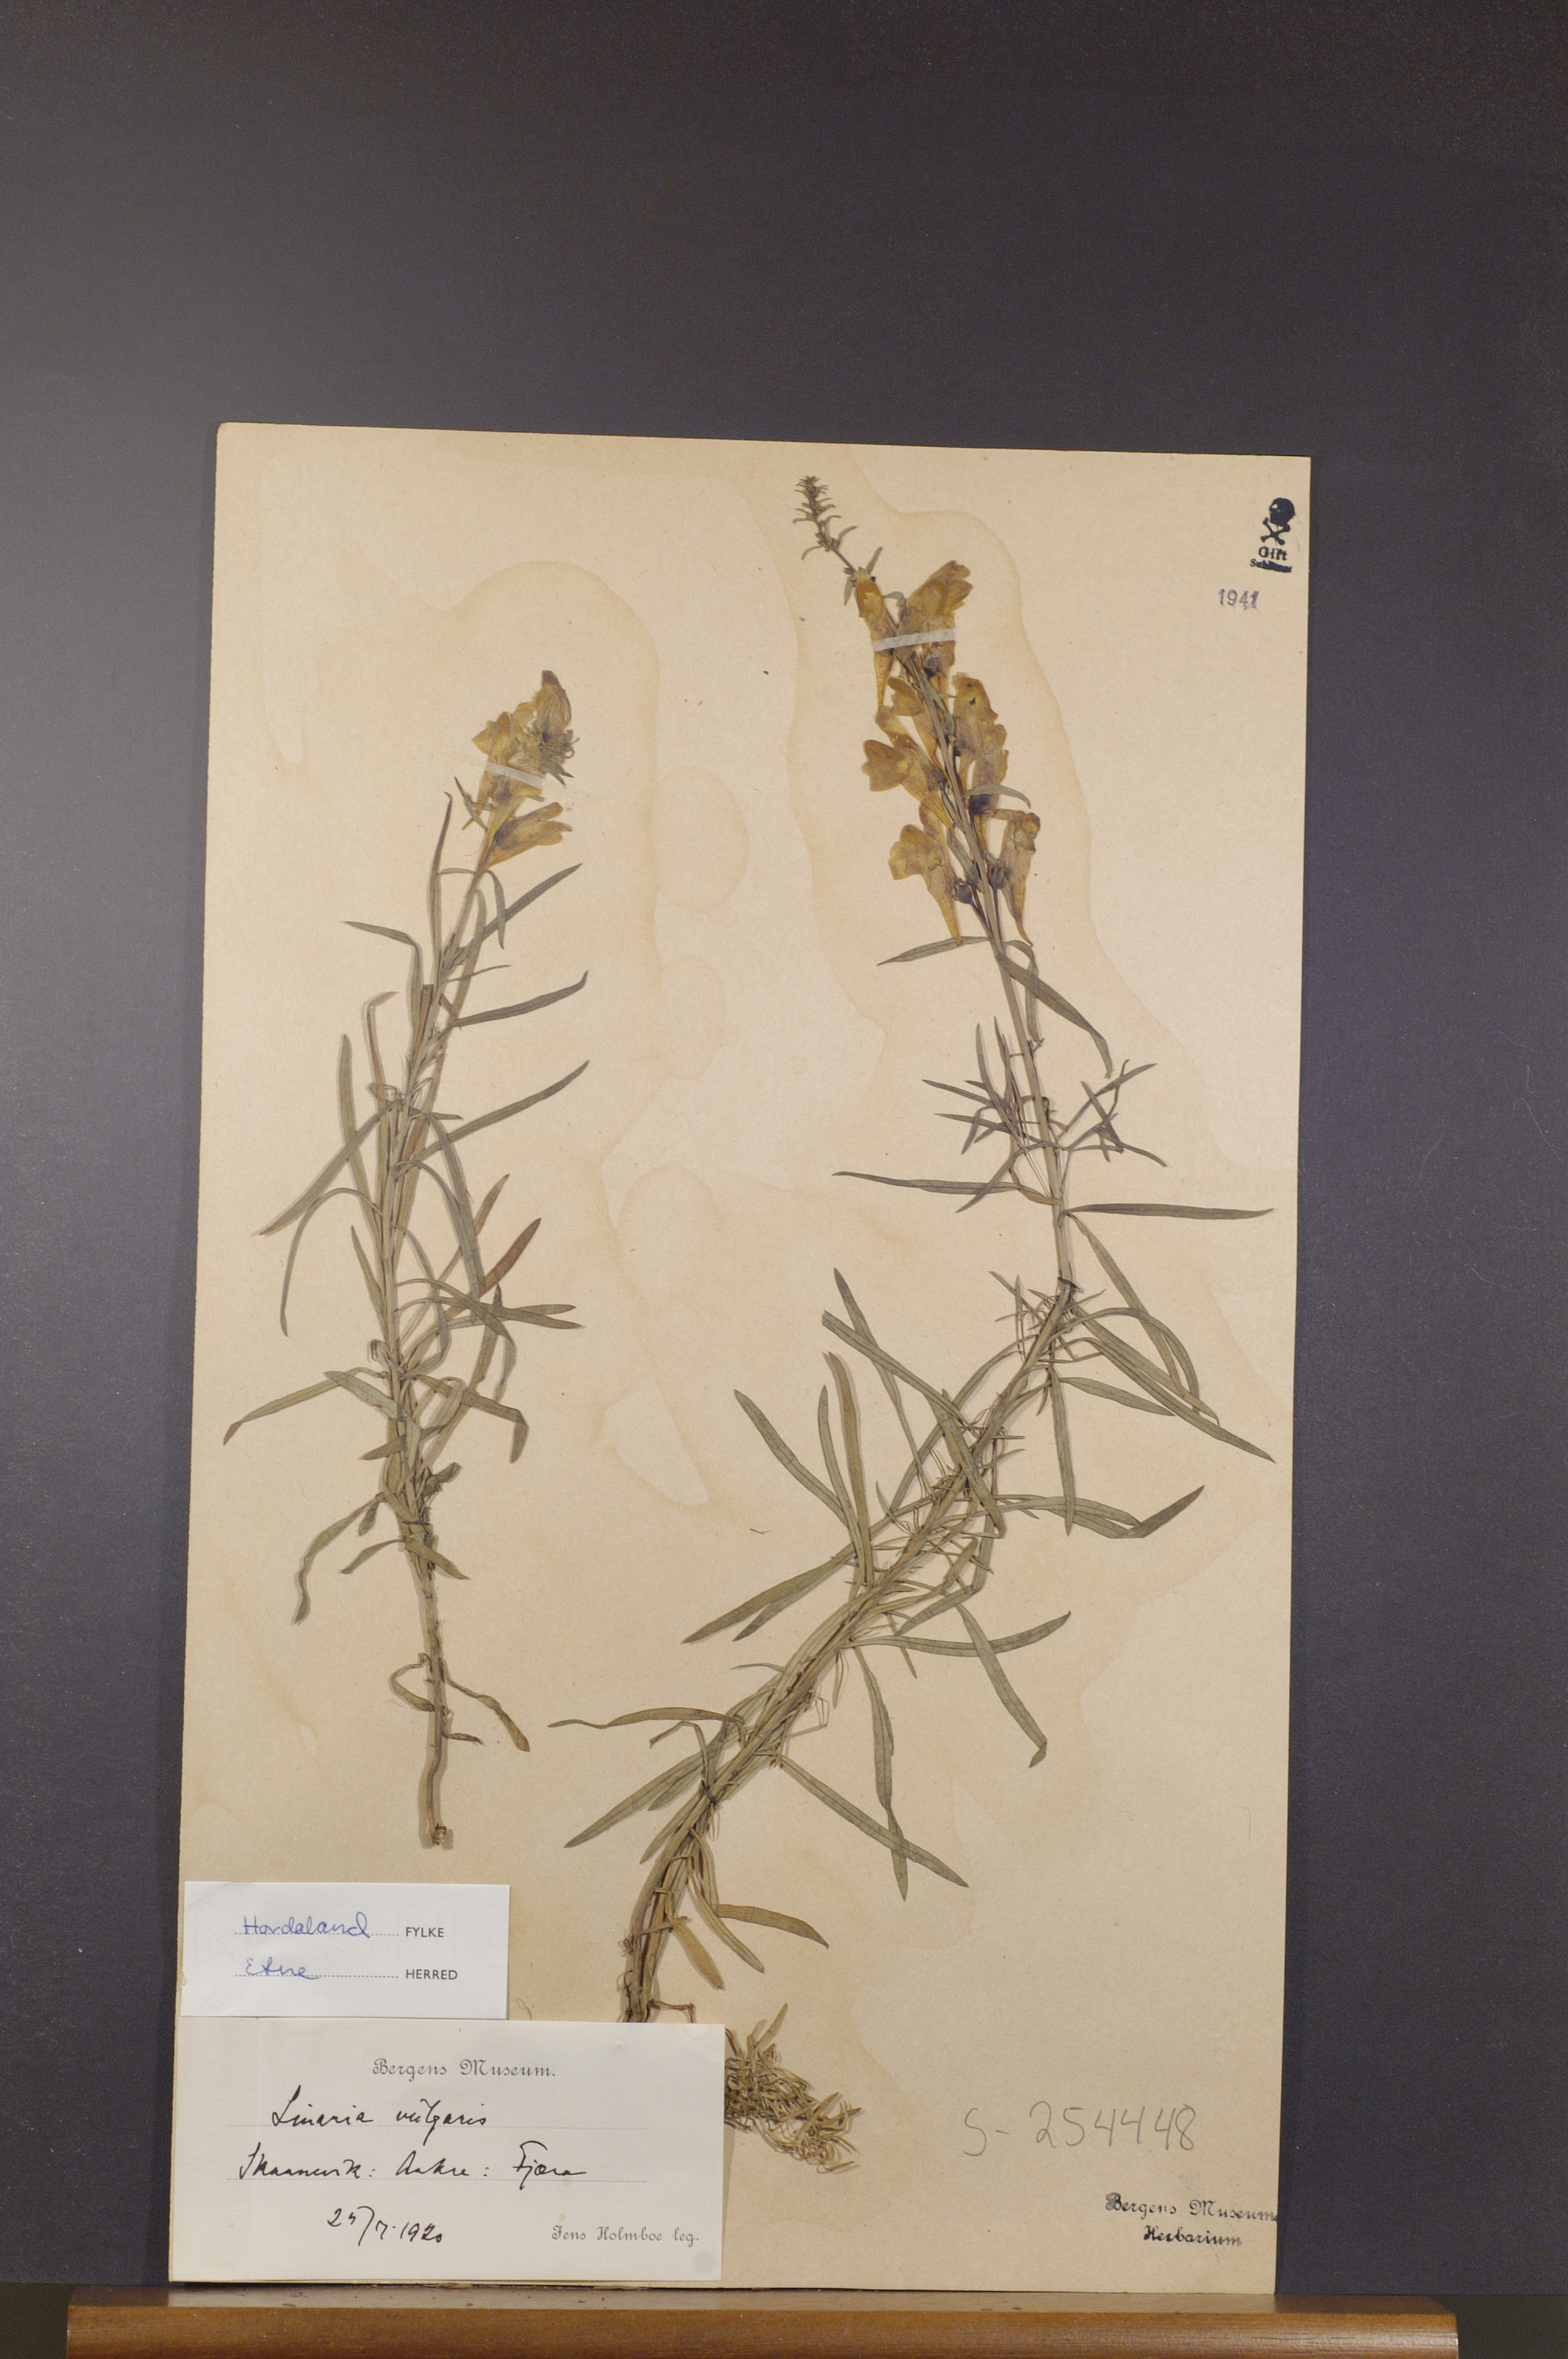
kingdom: Plantae
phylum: Tracheophyta
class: Magnoliopsida
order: Lamiales
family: Plantaginaceae
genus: Linaria
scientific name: Linaria vulgaris
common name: Butter and eggs
